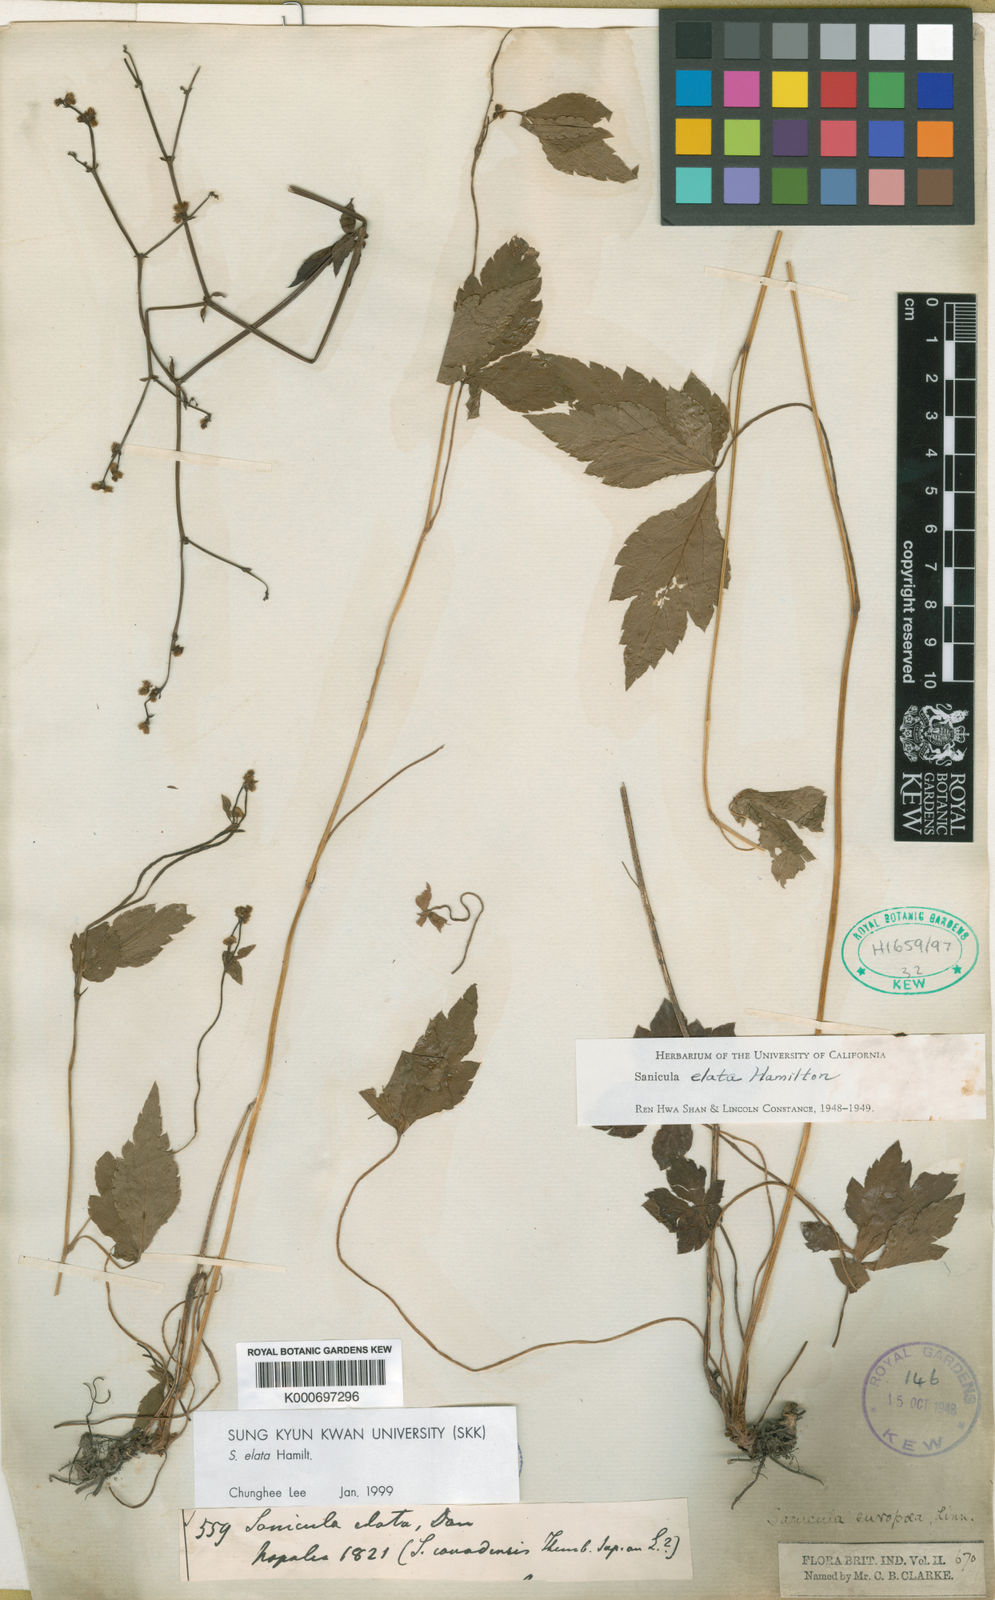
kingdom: Plantae
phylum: Tracheophyta
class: Magnoliopsida
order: Apiales
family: Apiaceae
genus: Sanicula
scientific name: Sanicula elata
